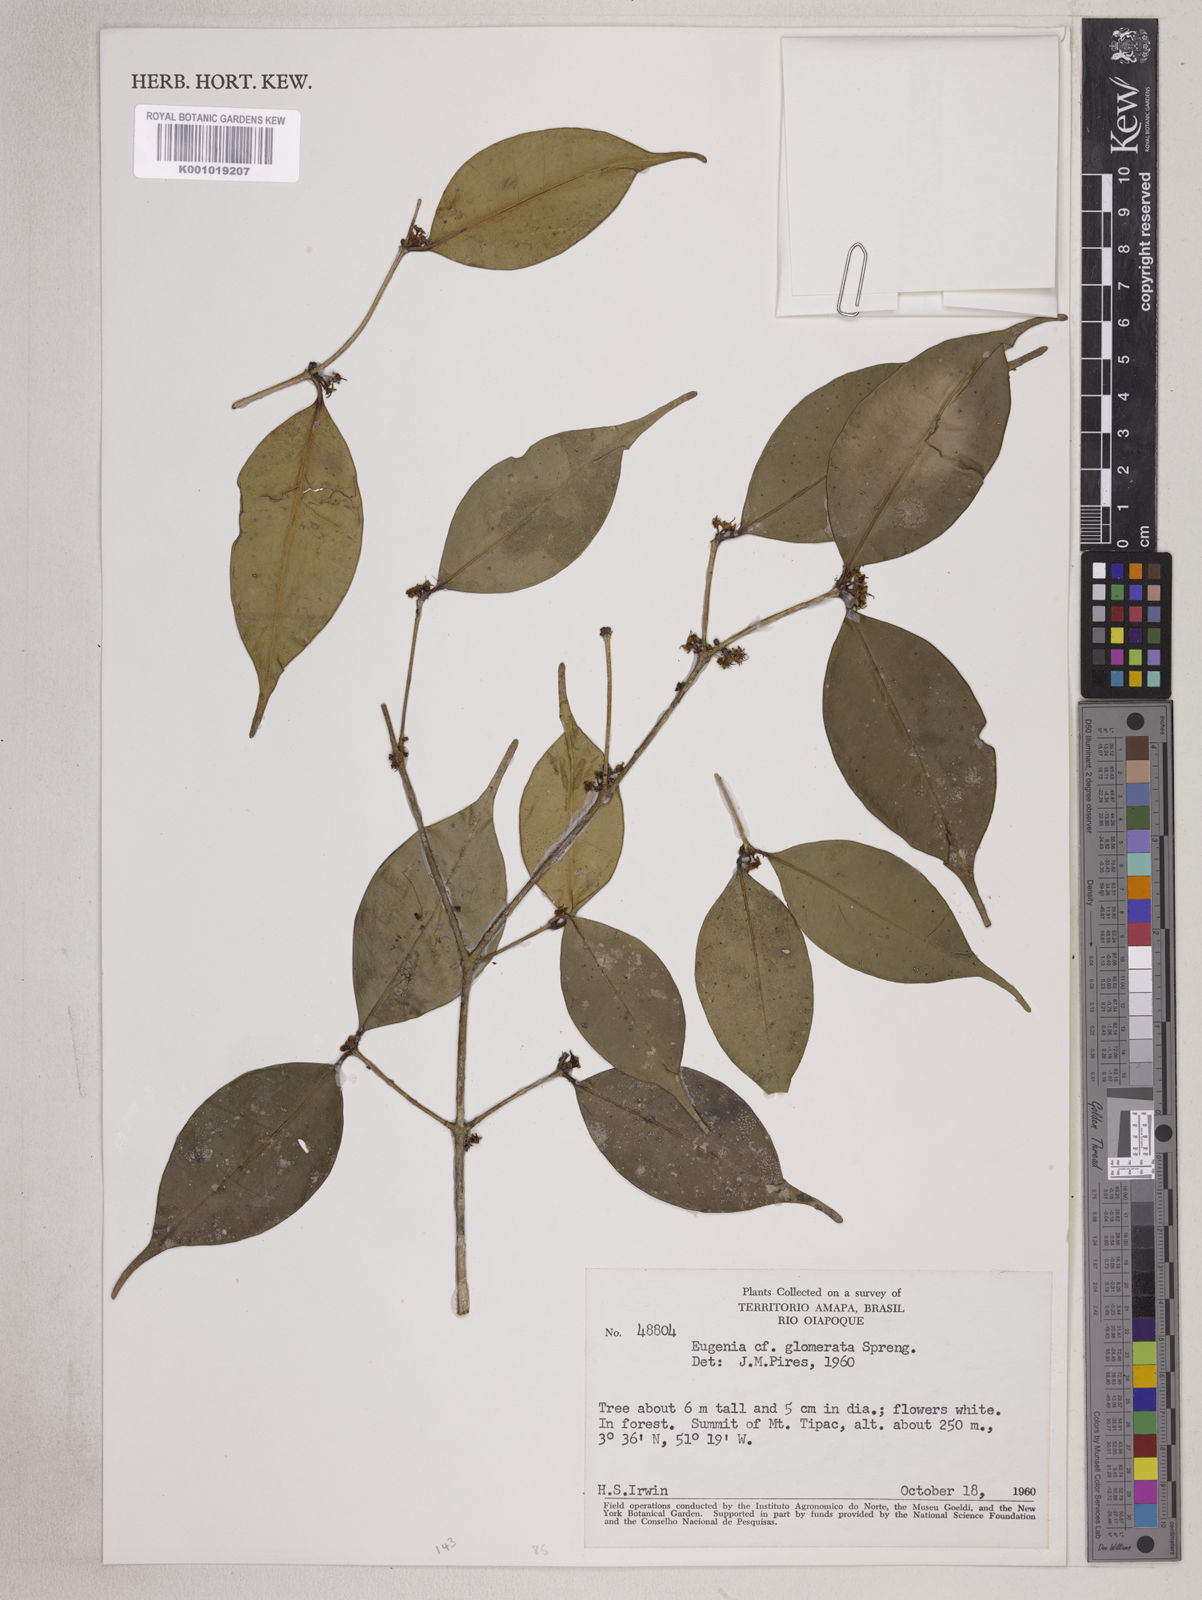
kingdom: Plantae
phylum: Tracheophyta
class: Magnoliopsida
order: Myrtales
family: Myrtaceae
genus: Eugenia
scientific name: Eugenia neoglomerata
